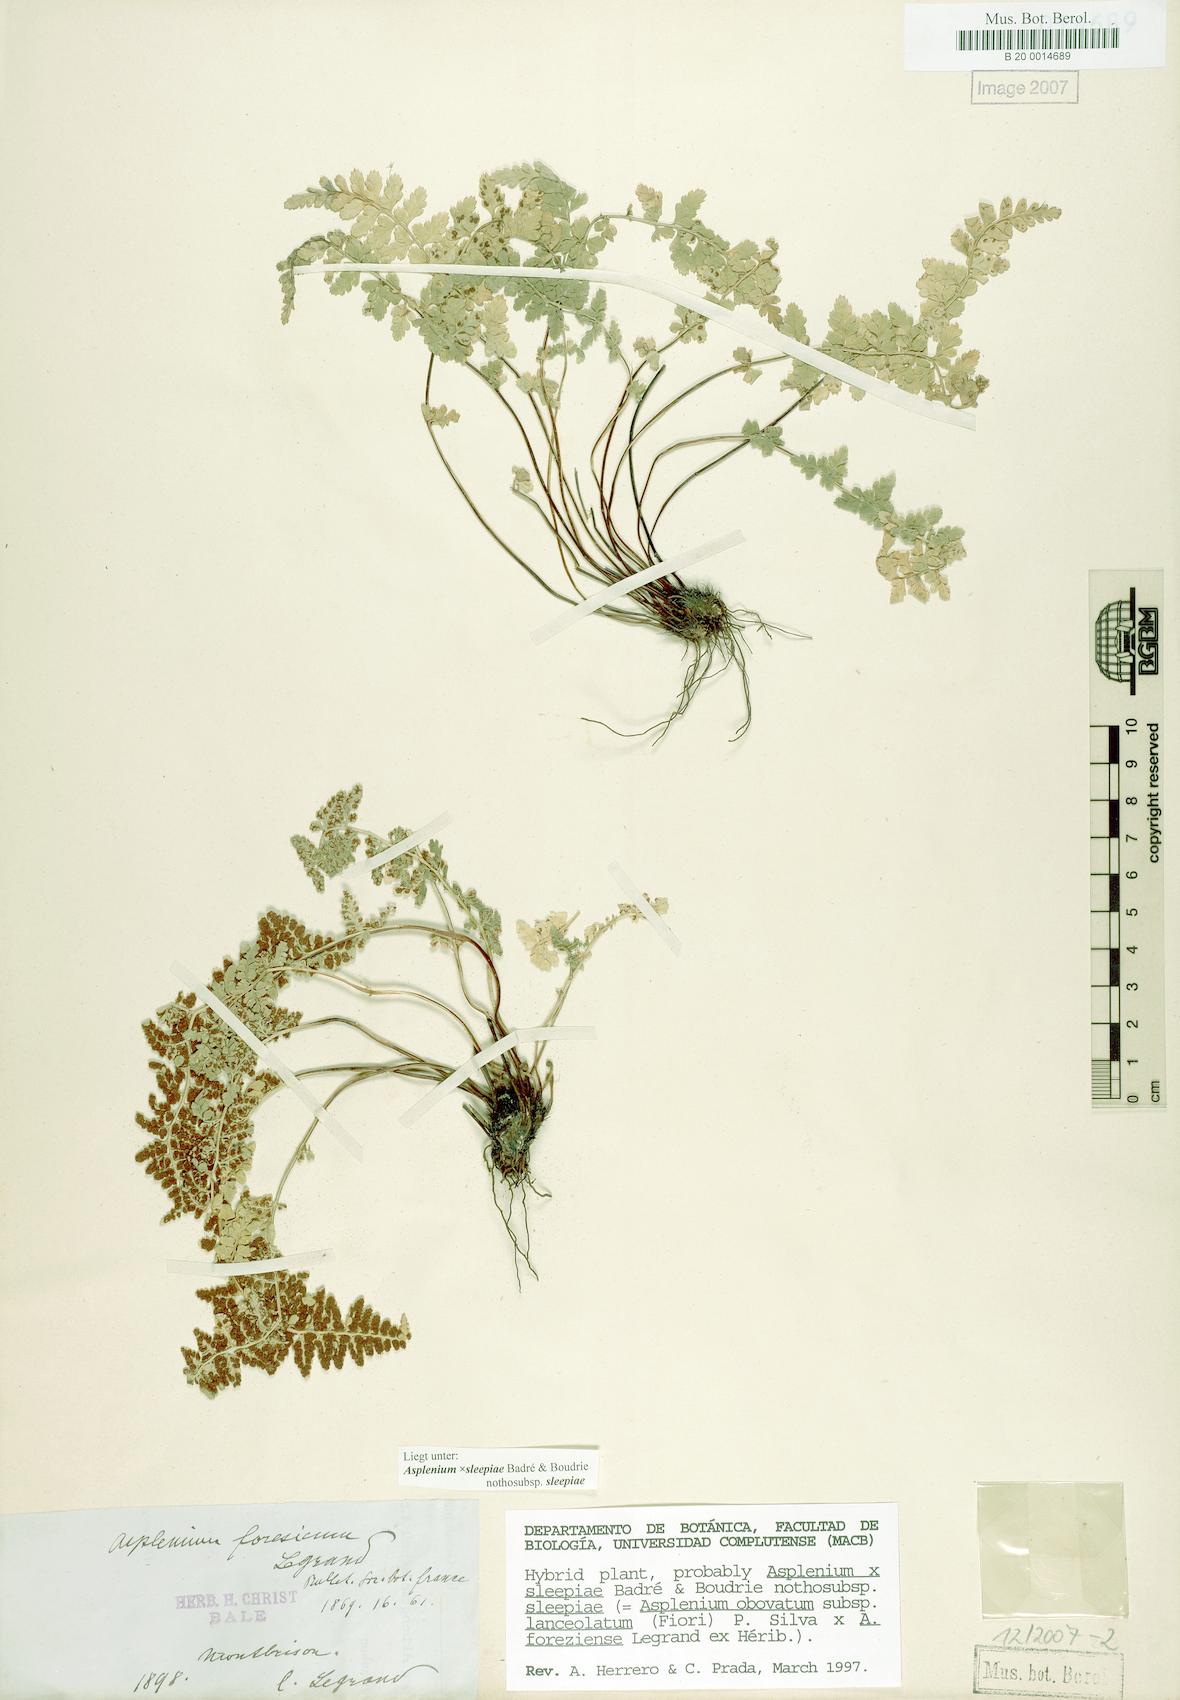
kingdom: Plantae
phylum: Tracheophyta
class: Polypodiopsida
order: Polypodiales
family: Aspleniaceae
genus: Asplenium
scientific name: Asplenium sleepiae
